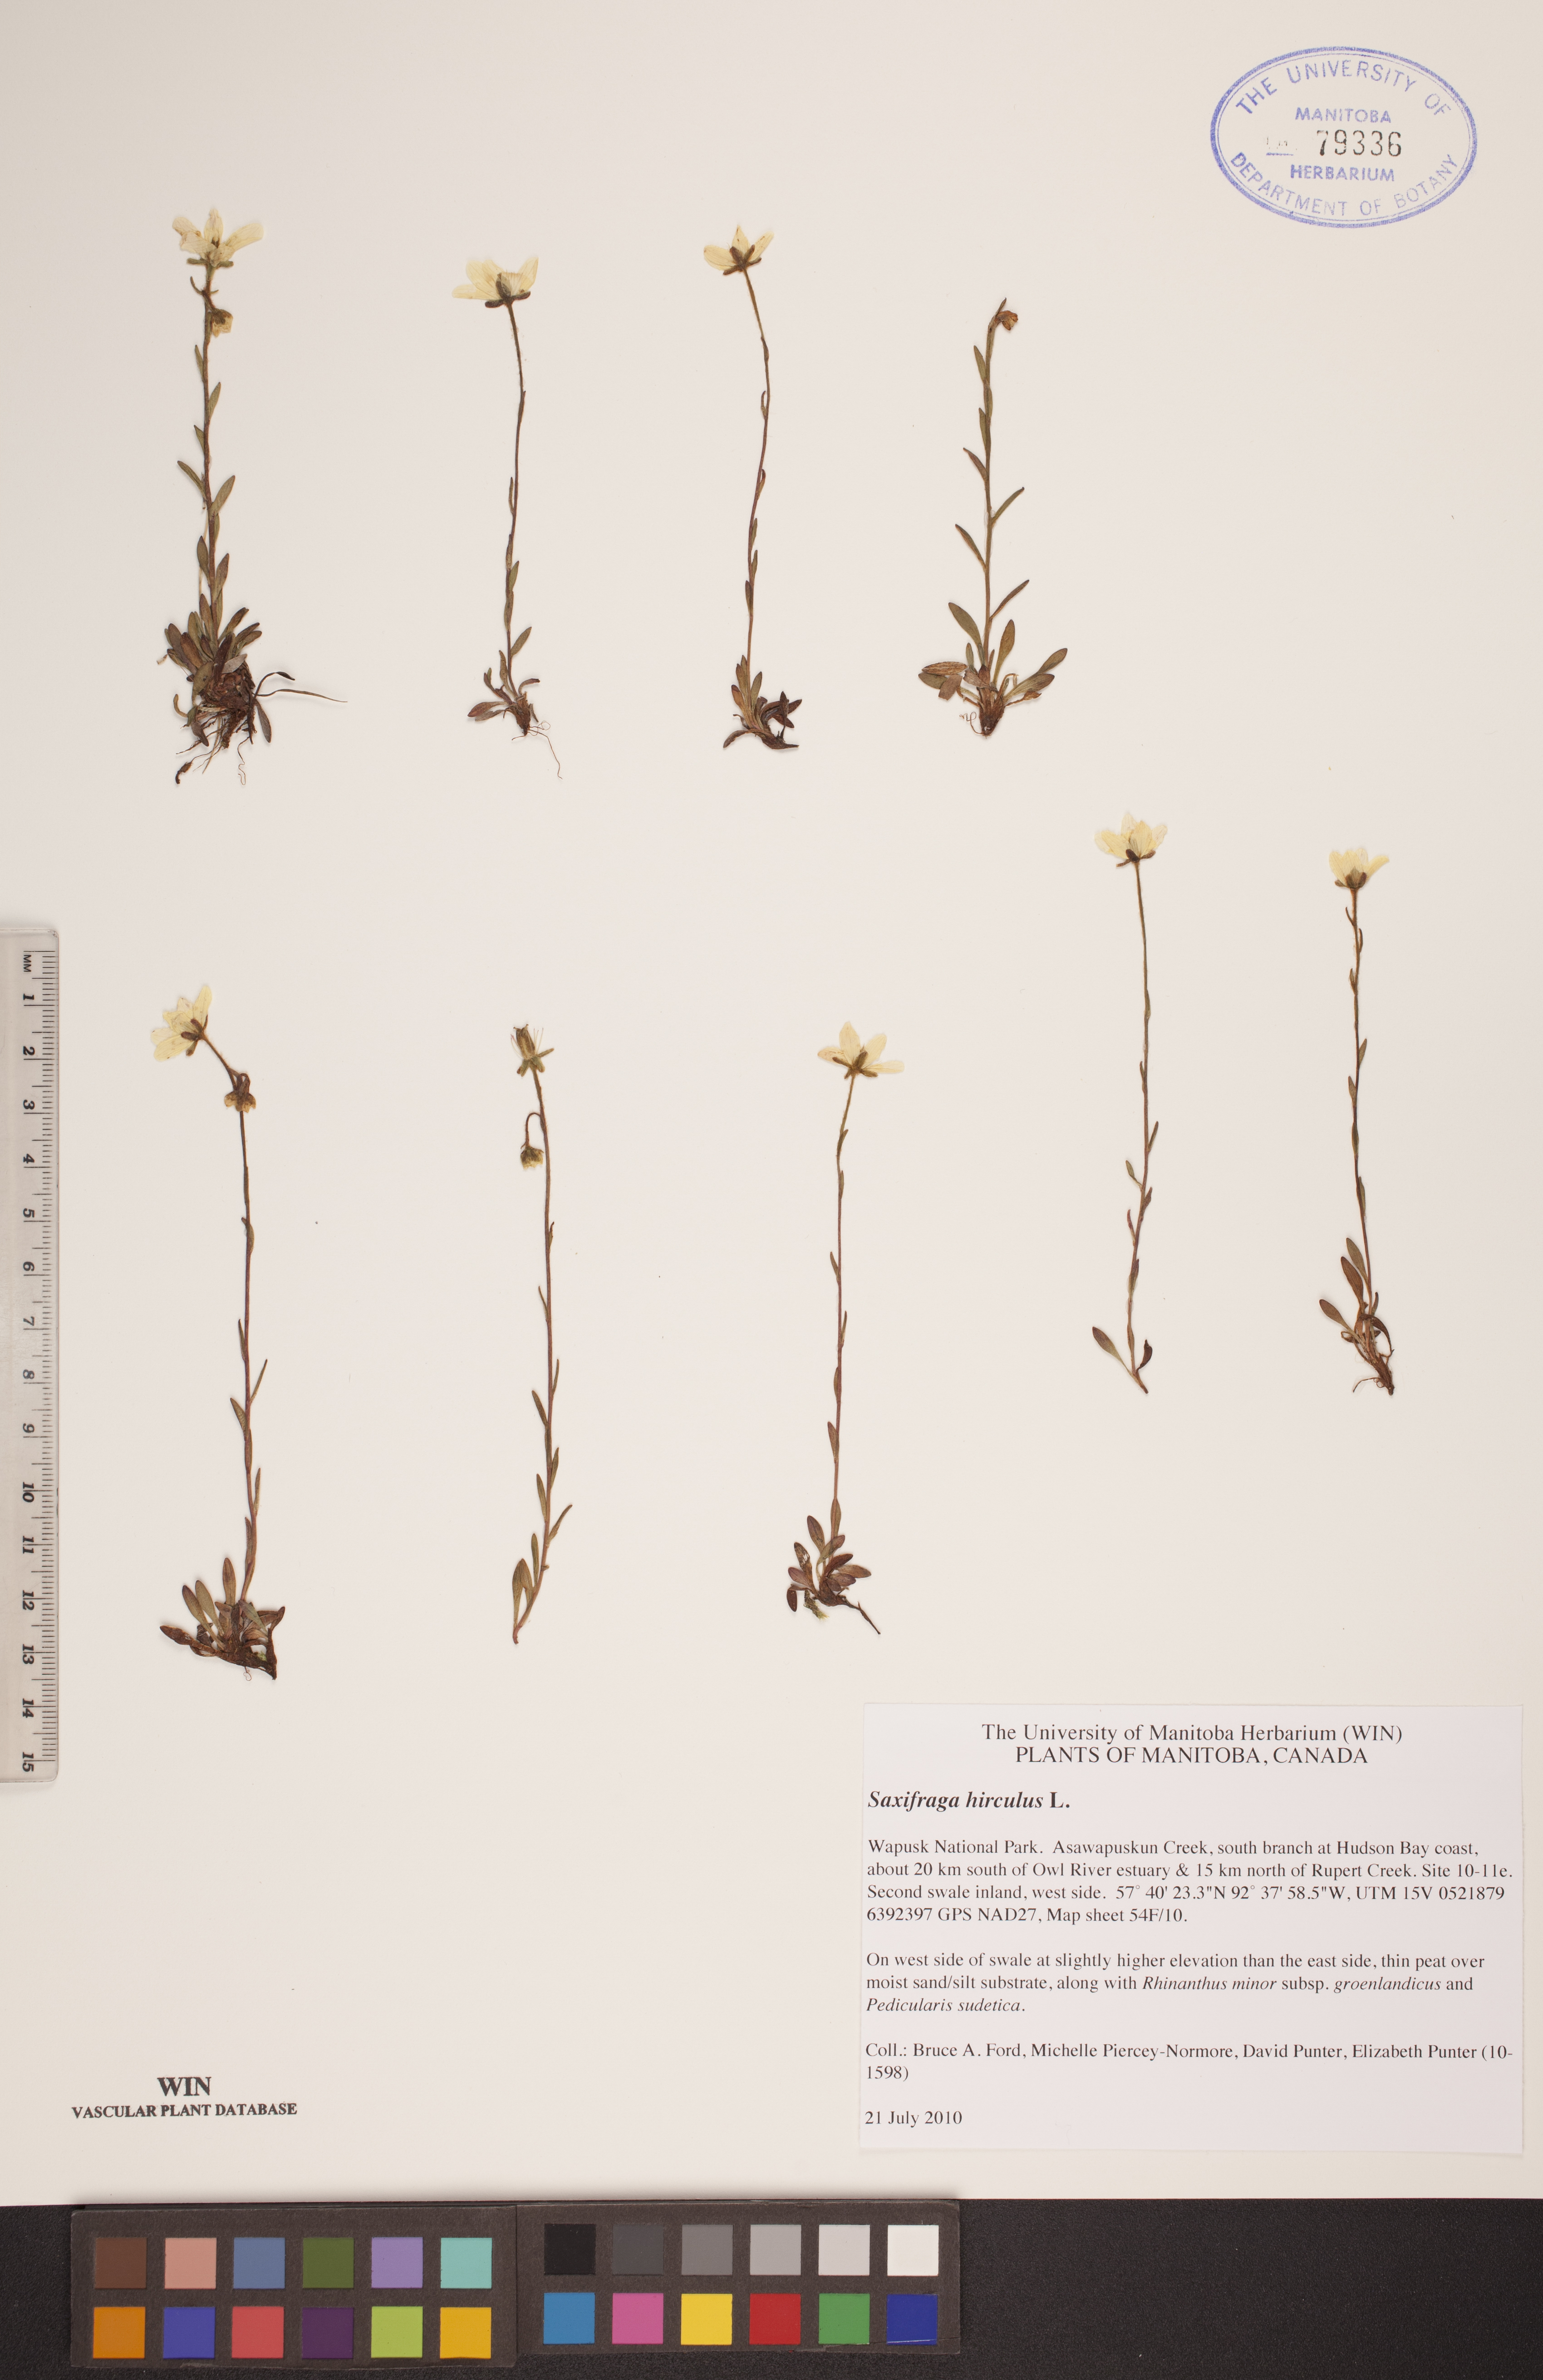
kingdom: Plantae
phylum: Tracheophyta
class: Magnoliopsida
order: Saxifragales
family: Saxifragaceae
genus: Saxifraga
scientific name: Saxifraga hirculus
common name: Yellow marsh saxifrage
